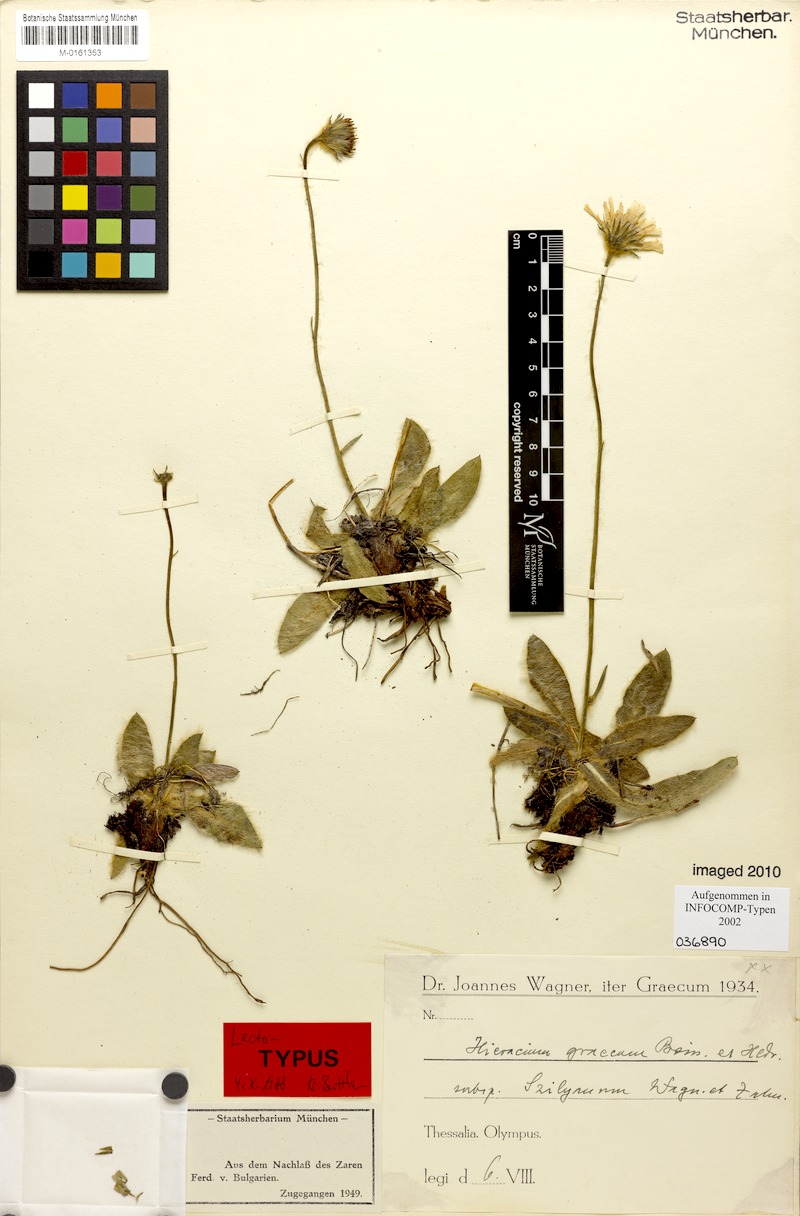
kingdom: Plantae
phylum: Tracheophyta
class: Magnoliopsida
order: Asterales
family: Asteraceae
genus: Hieracium
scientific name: Hieracium graecum
